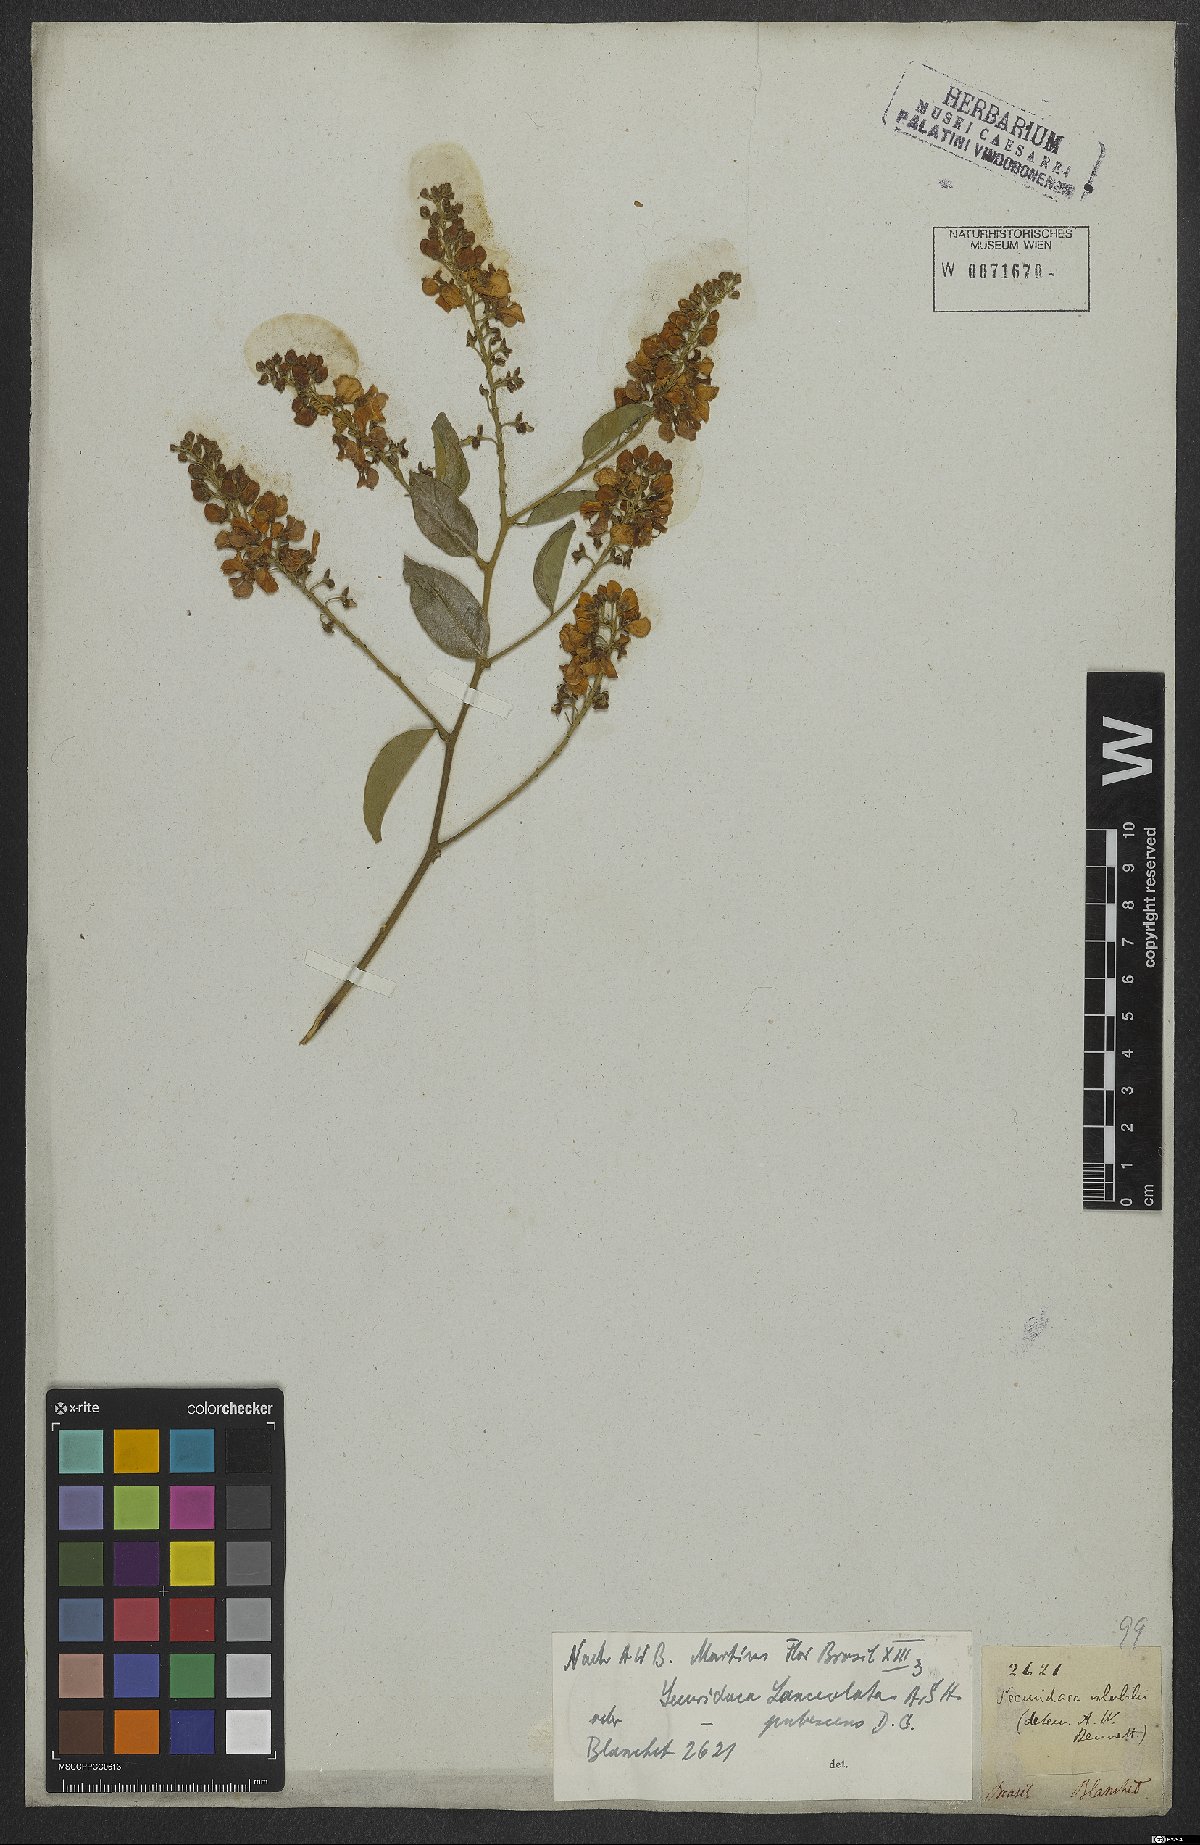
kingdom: Plantae
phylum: Tracheophyta
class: Magnoliopsida
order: Fabales
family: Polygalaceae
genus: Securidaca
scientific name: Securidaca lanceolata
